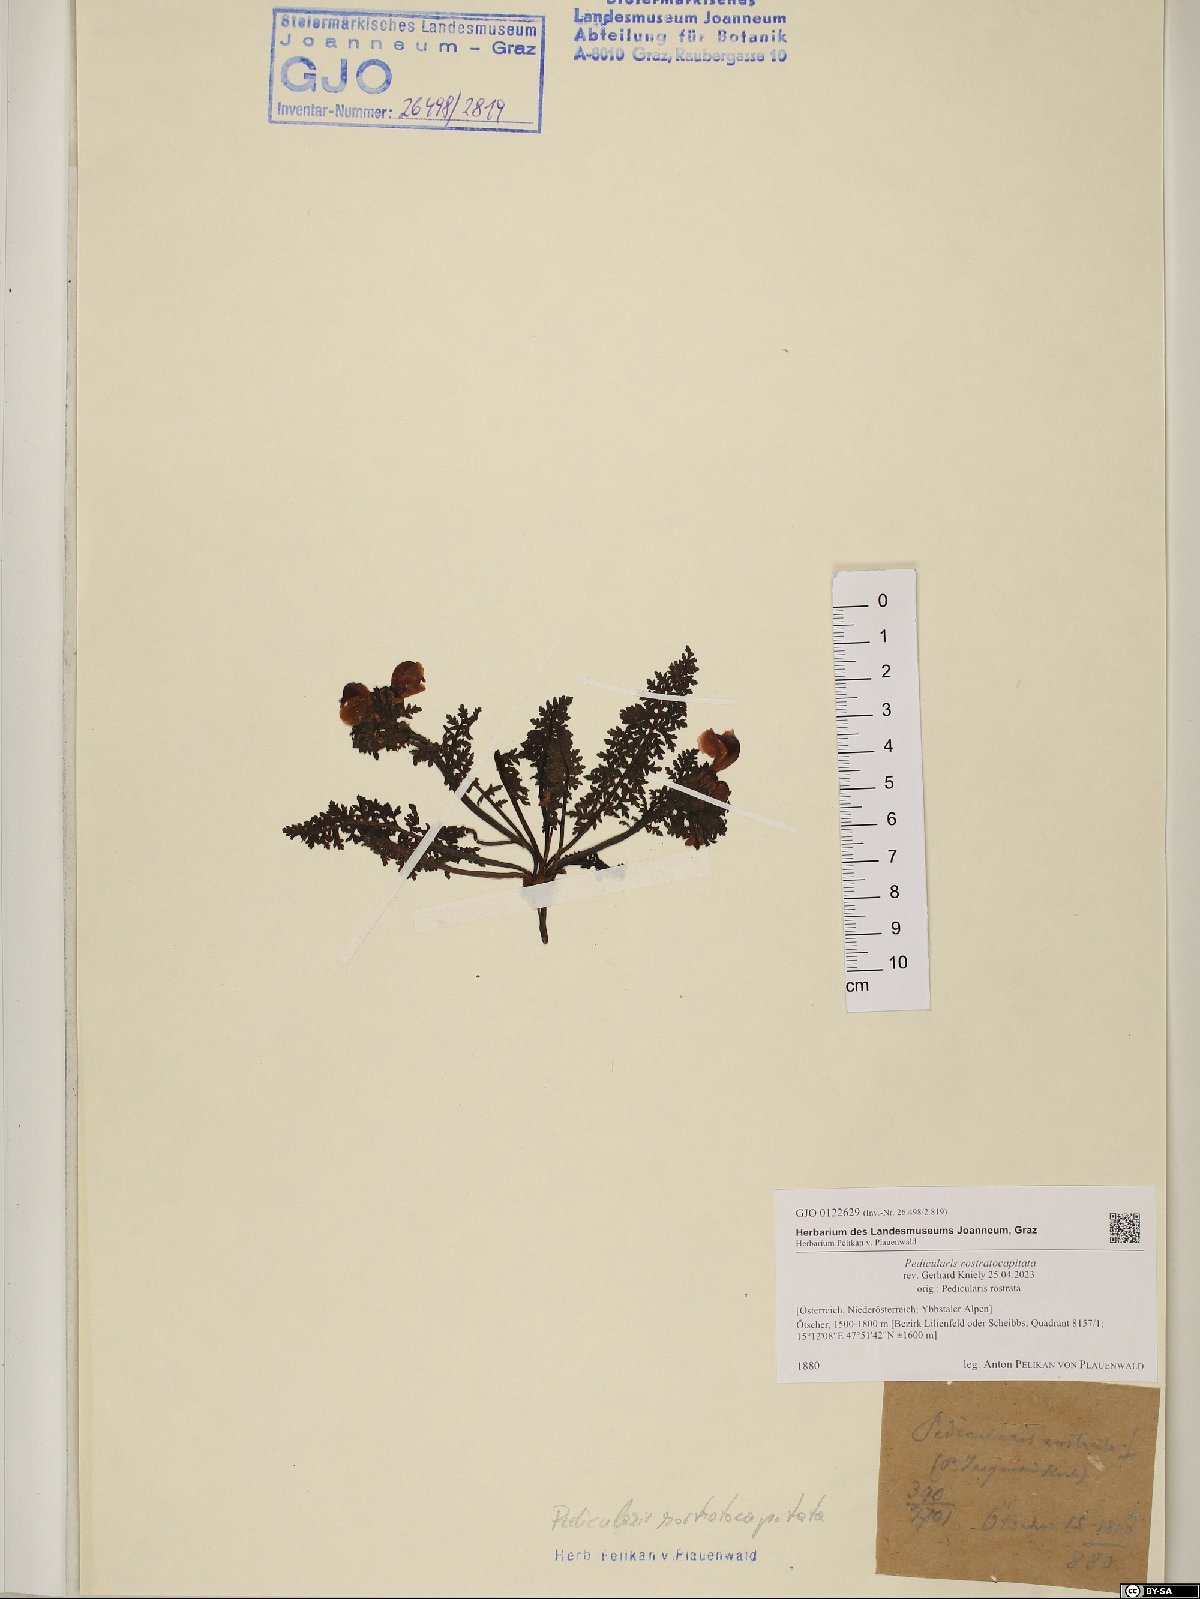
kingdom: Plantae
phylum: Tracheophyta
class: Magnoliopsida
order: Lamiales
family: Orobanchaceae
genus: Pedicularis
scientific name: Pedicularis rostratocapitata
